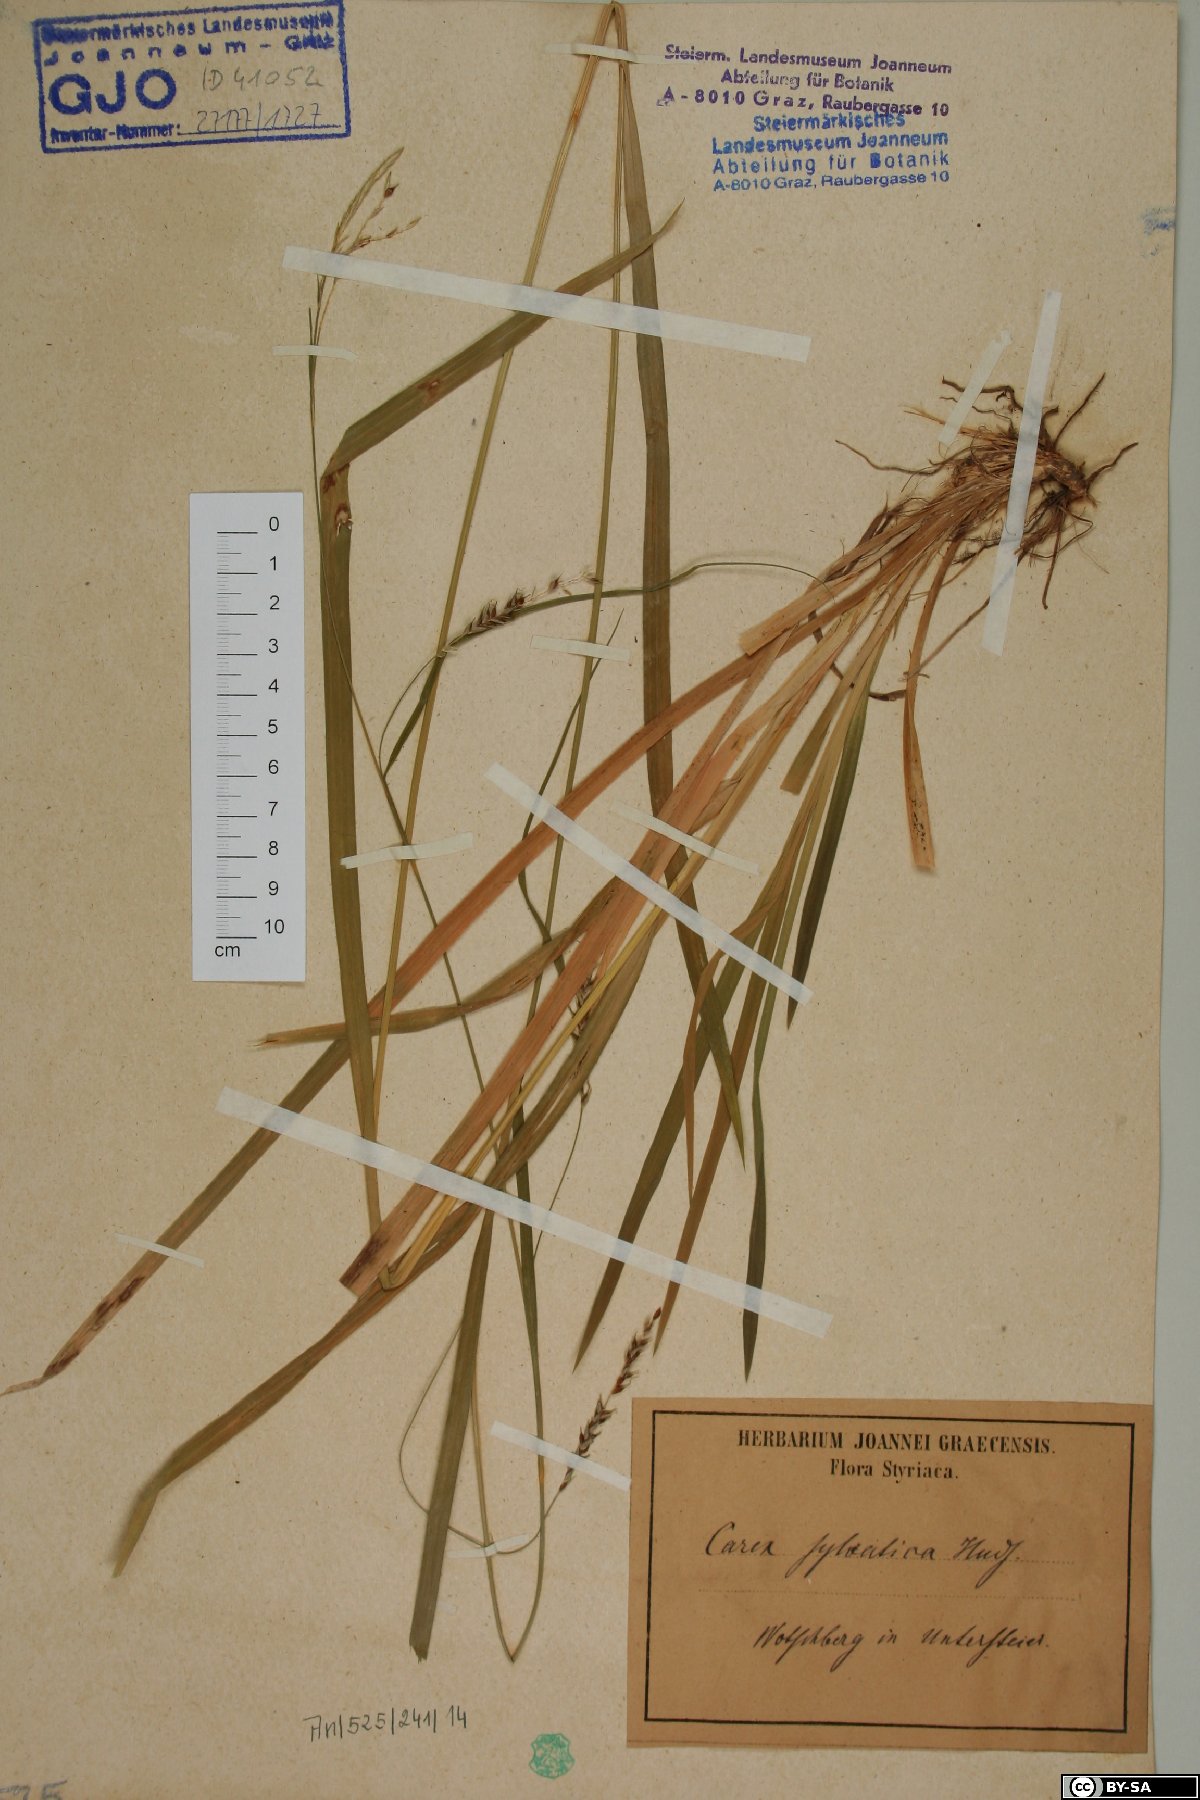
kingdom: Plantae
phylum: Tracheophyta
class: Liliopsida
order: Poales
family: Cyperaceae
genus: Carex
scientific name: Carex sylvatica
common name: Wood-sedge
